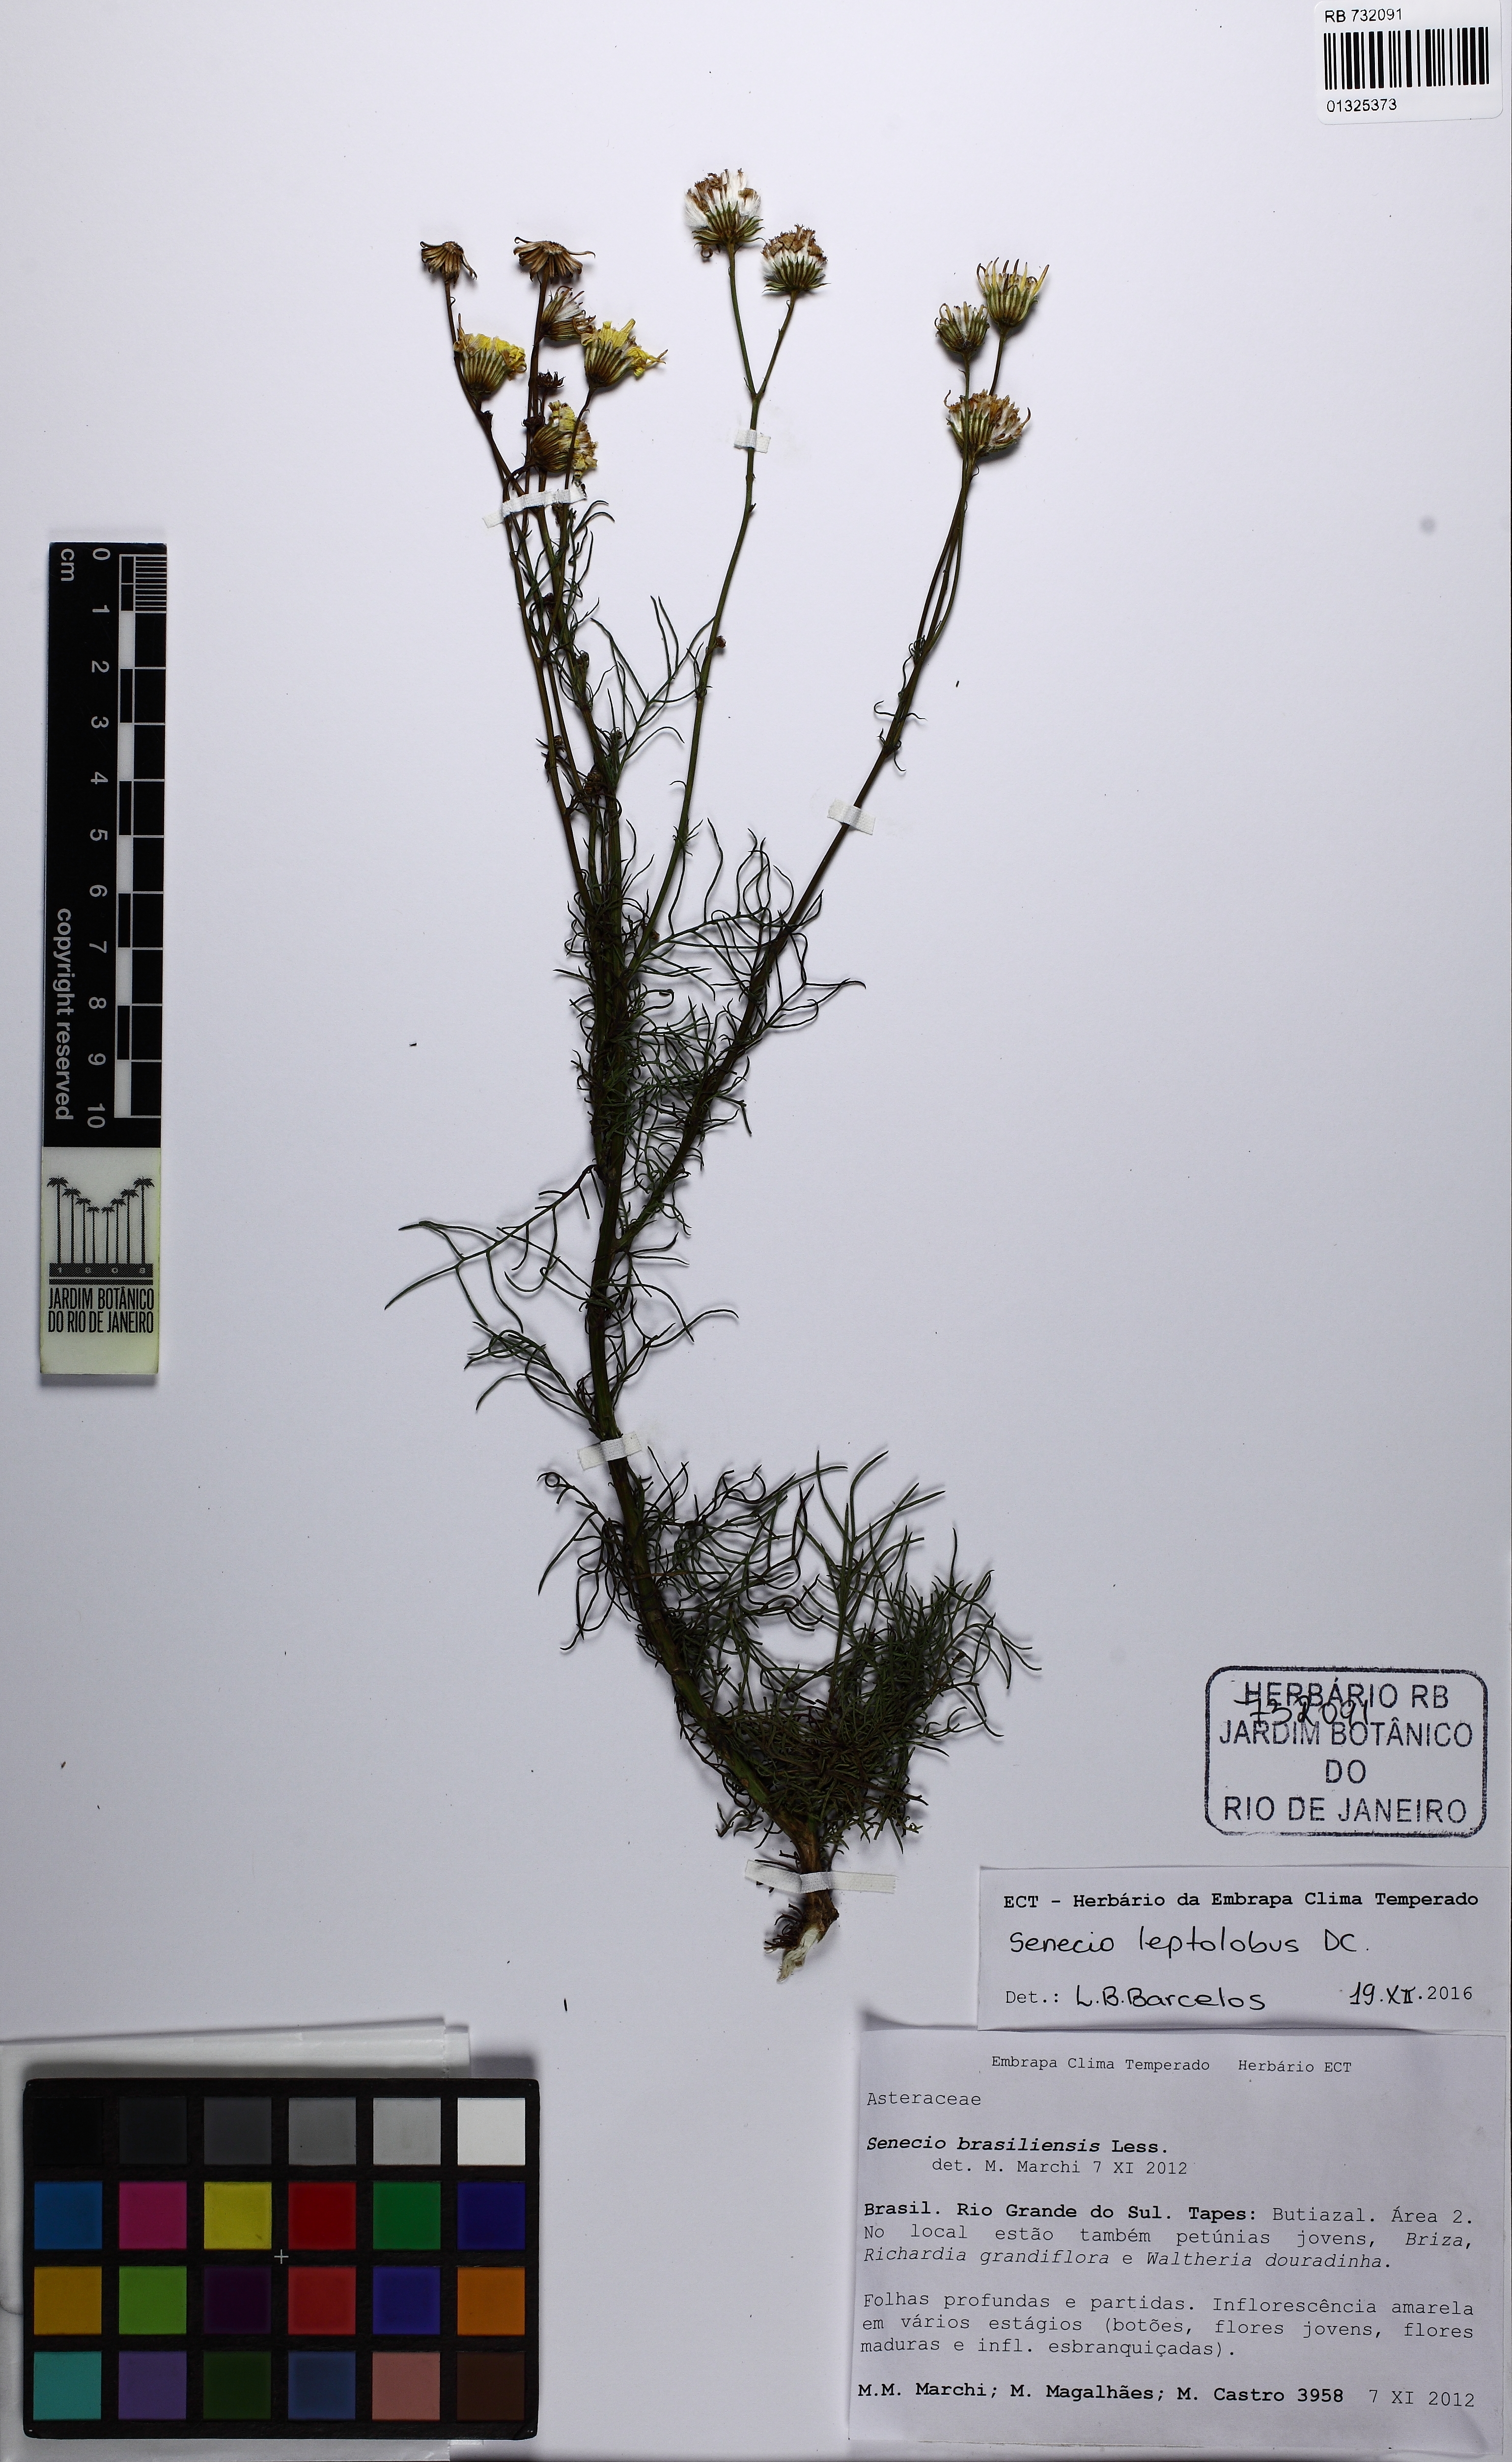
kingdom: Plantae
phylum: Tracheophyta
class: Magnoliopsida
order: Asterales
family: Asteraceae
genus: Dendrophorbium
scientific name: Dendrophorbium brachycodon
